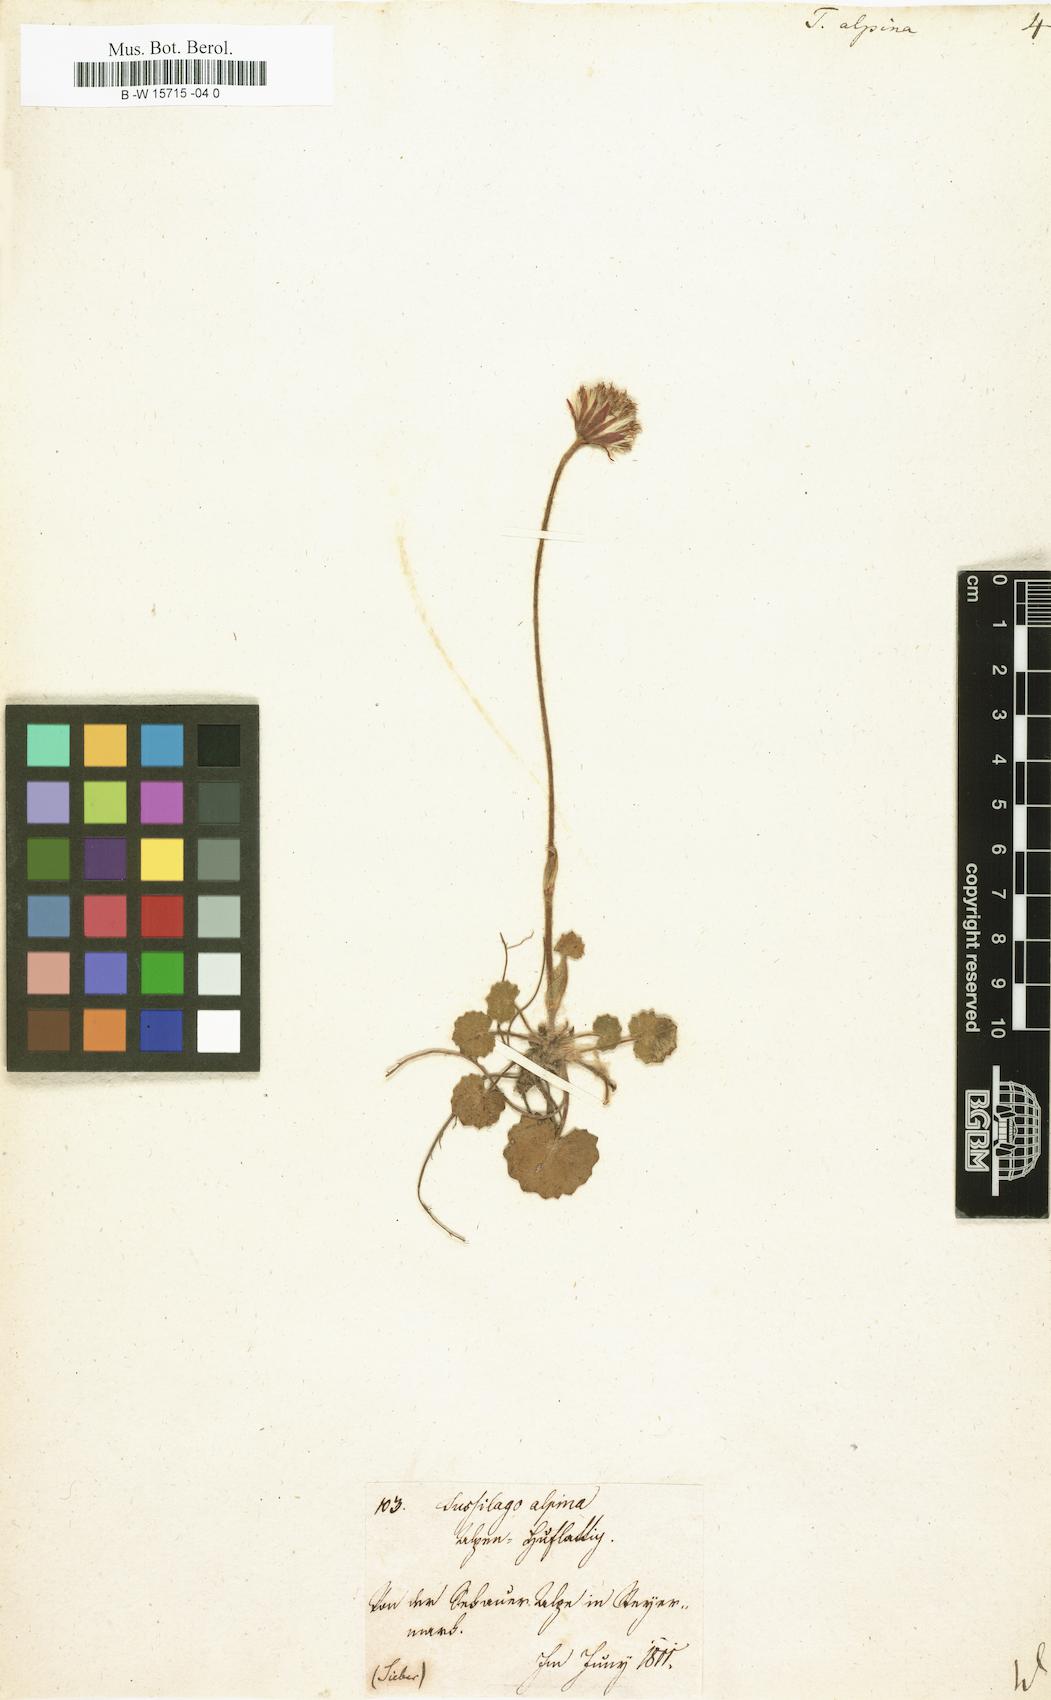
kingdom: Plantae
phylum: Tracheophyta
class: Magnoliopsida
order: Asterales
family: Asteraceae
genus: Tussilago
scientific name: Tussilago alpina
